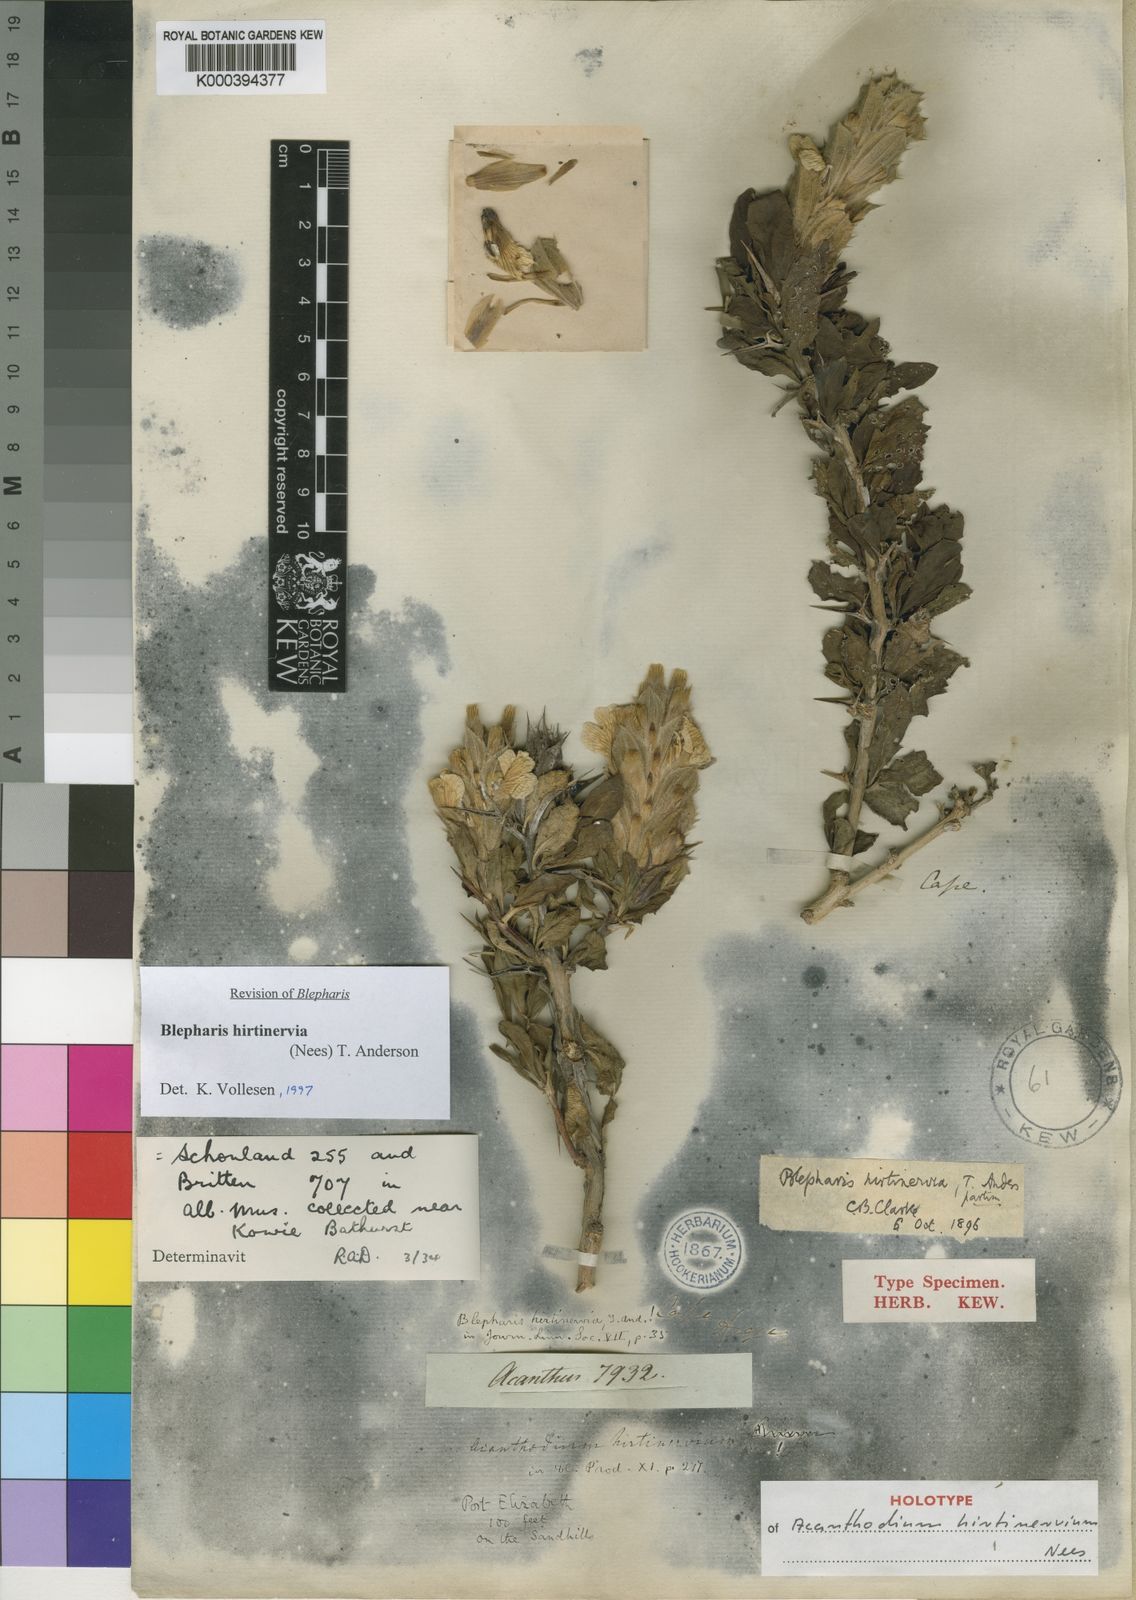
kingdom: Plantae
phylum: Tracheophyta
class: Magnoliopsida
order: Lamiales
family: Acanthaceae
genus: Blepharis
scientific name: Blepharis hirtinervia
